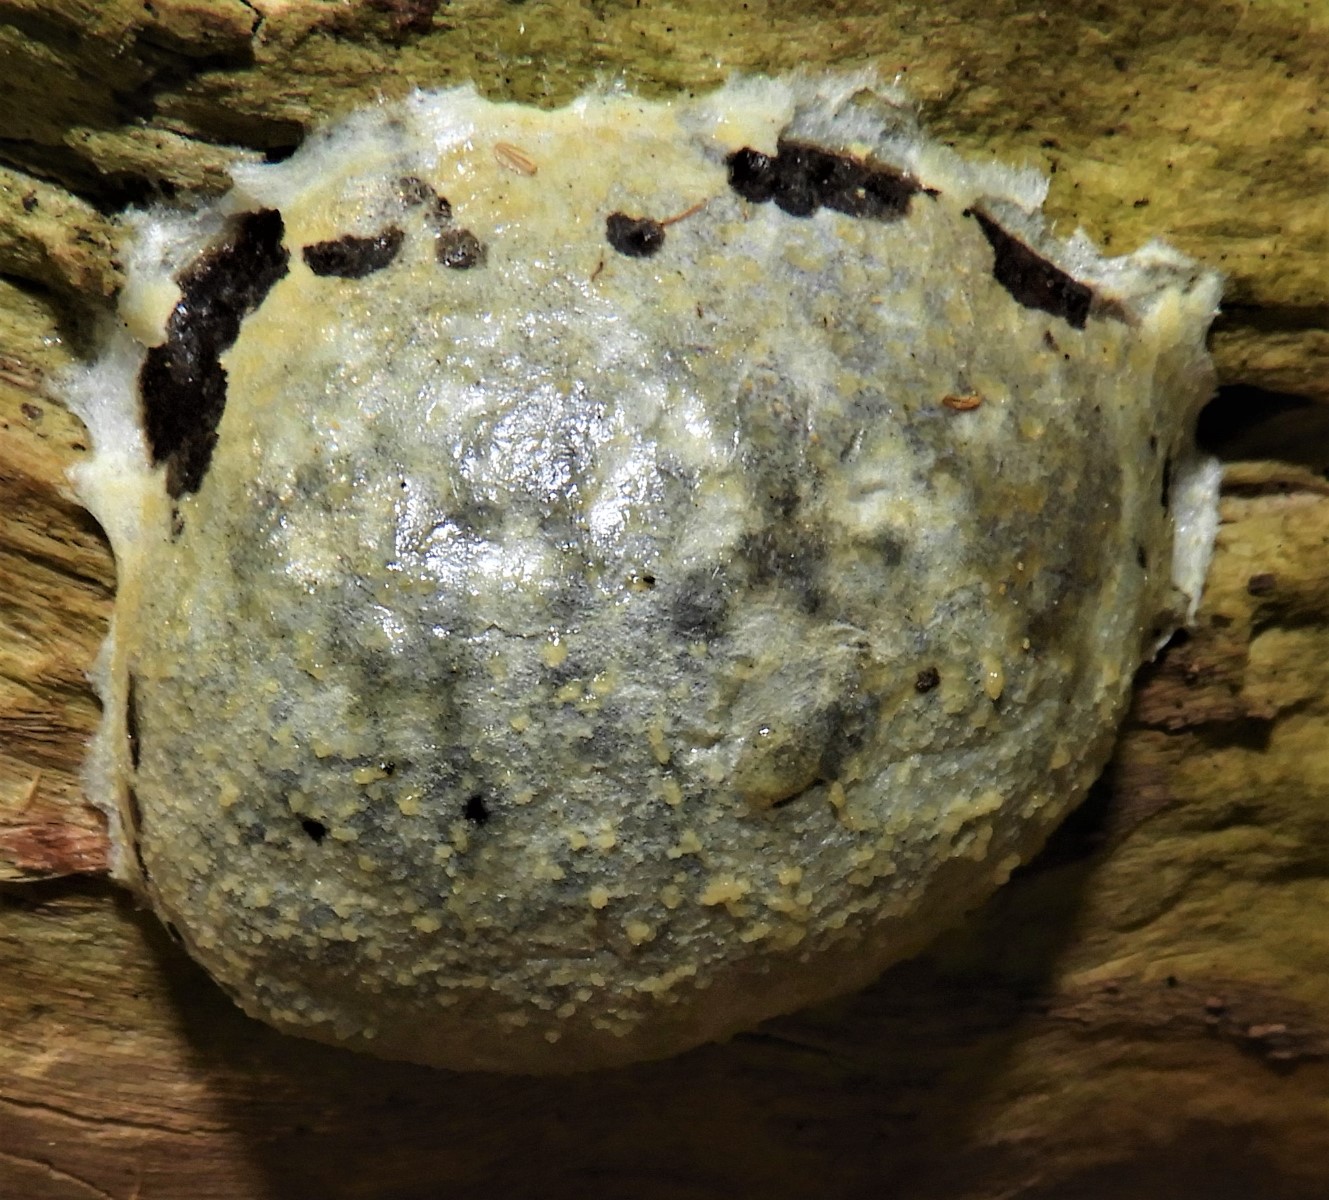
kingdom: Protozoa
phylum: Mycetozoa
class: Myxomycetes
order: Cribrariales
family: Tubiferaceae
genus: Reticularia
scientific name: Reticularia lycoperdon
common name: skinnende støvpude
